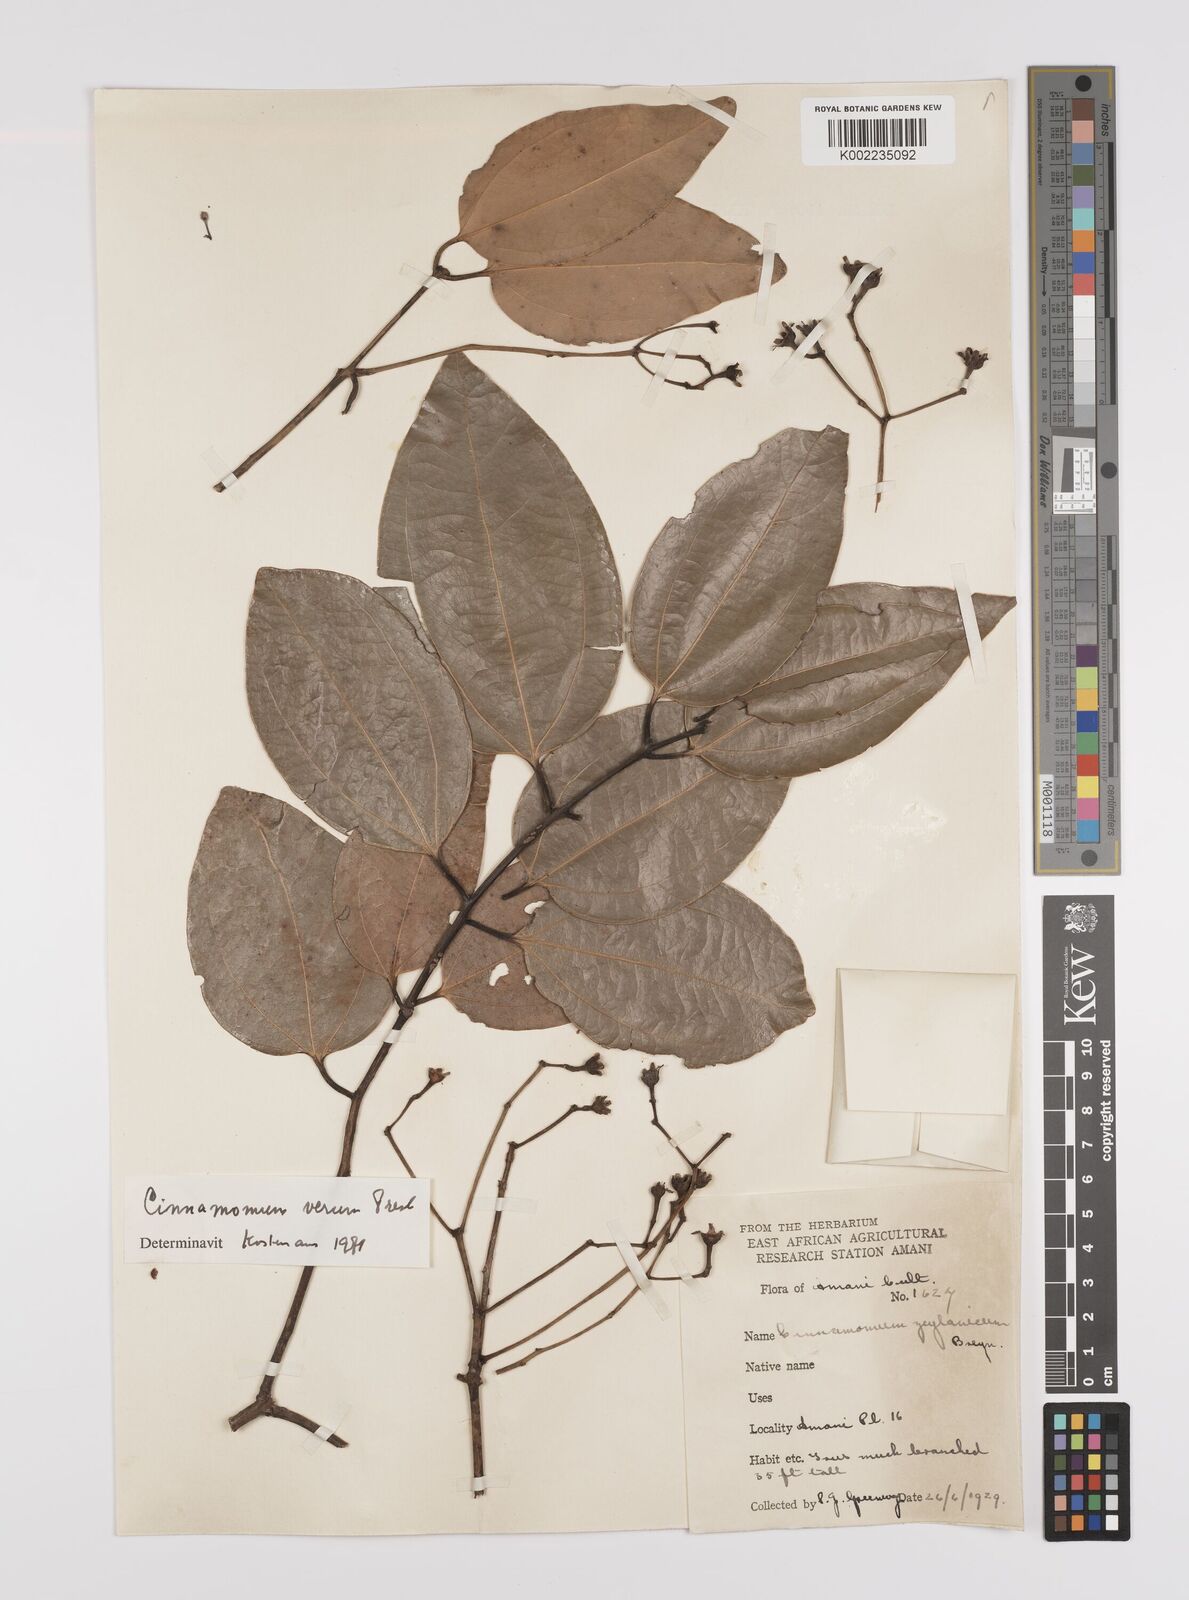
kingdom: Plantae
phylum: Tracheophyta
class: Magnoliopsida
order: Laurales
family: Lauraceae
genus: Cinnamomum
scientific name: Cinnamomum verum
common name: Cinnamon
